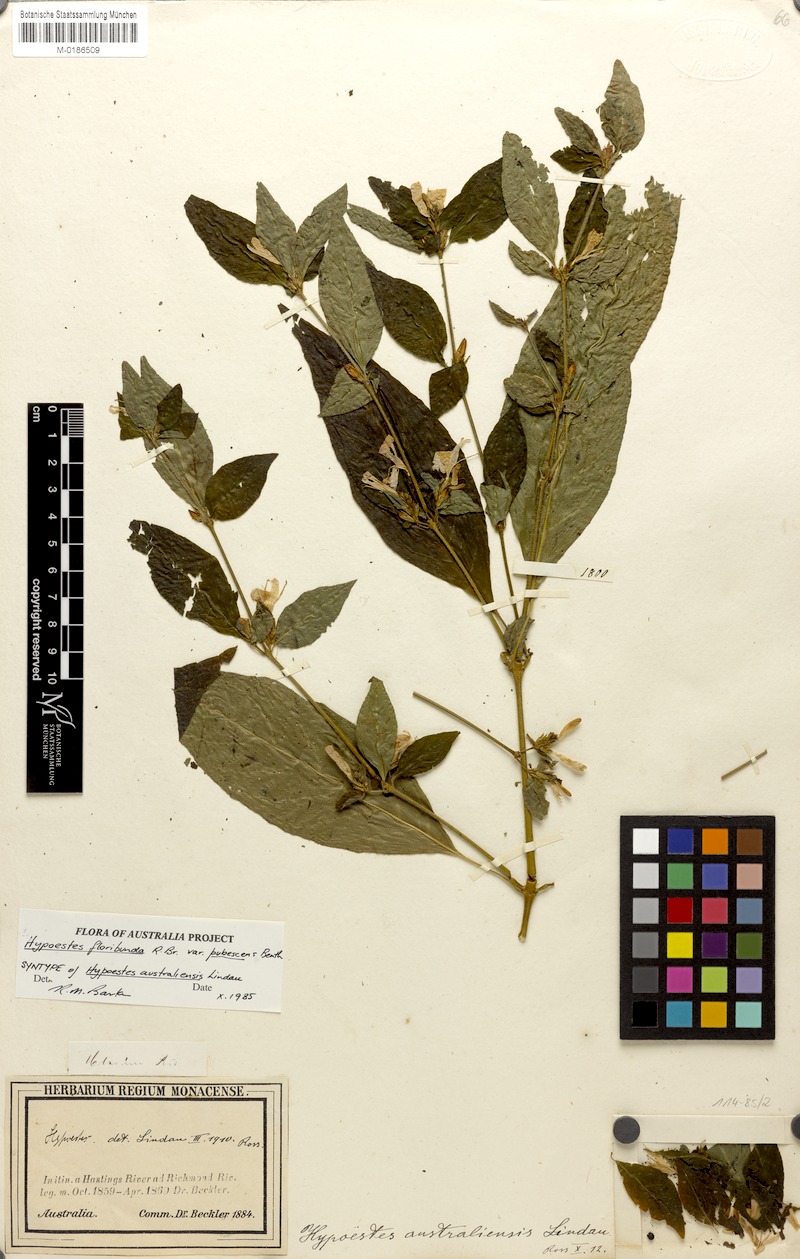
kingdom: Plantae
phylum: Tracheophyta
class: Magnoliopsida
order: Lamiales
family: Acanthaceae
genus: Hypoestes
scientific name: Hypoestes floribunda
